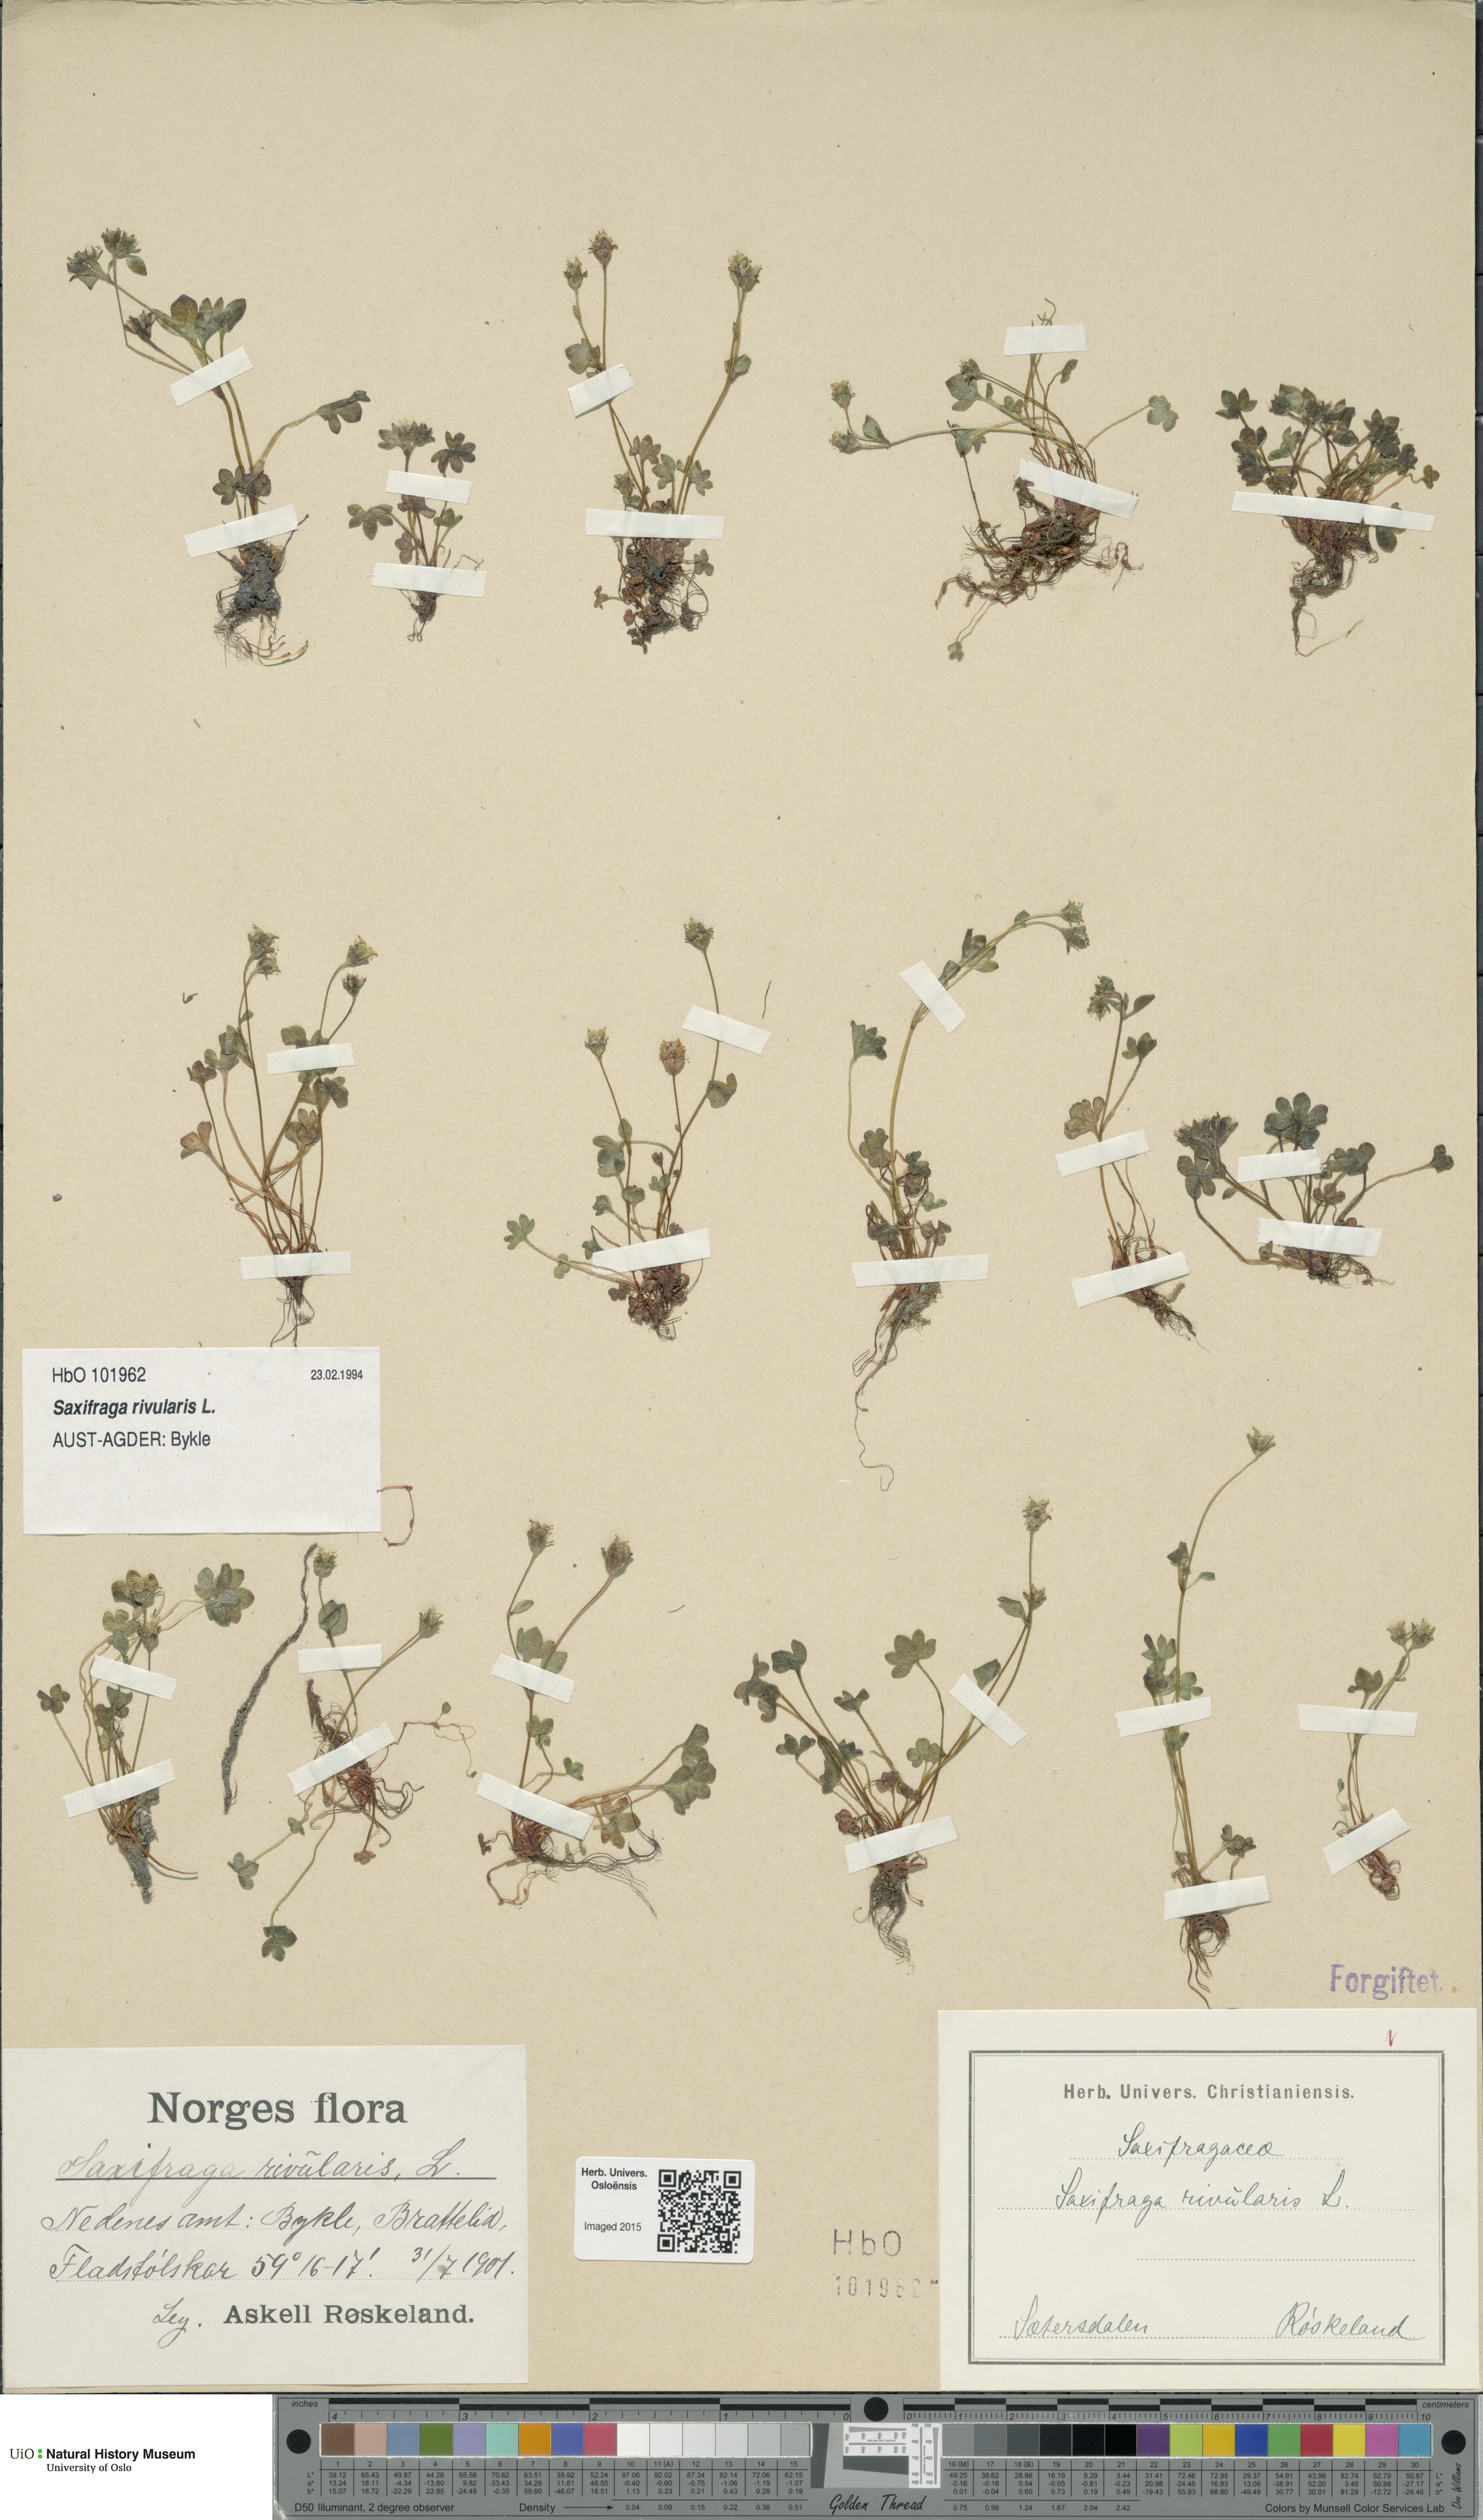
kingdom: Plantae
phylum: Tracheophyta
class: Magnoliopsida
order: Saxifragales
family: Saxifragaceae
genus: Saxifraga
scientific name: Saxifraga rivularis
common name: Highland saxifrage
